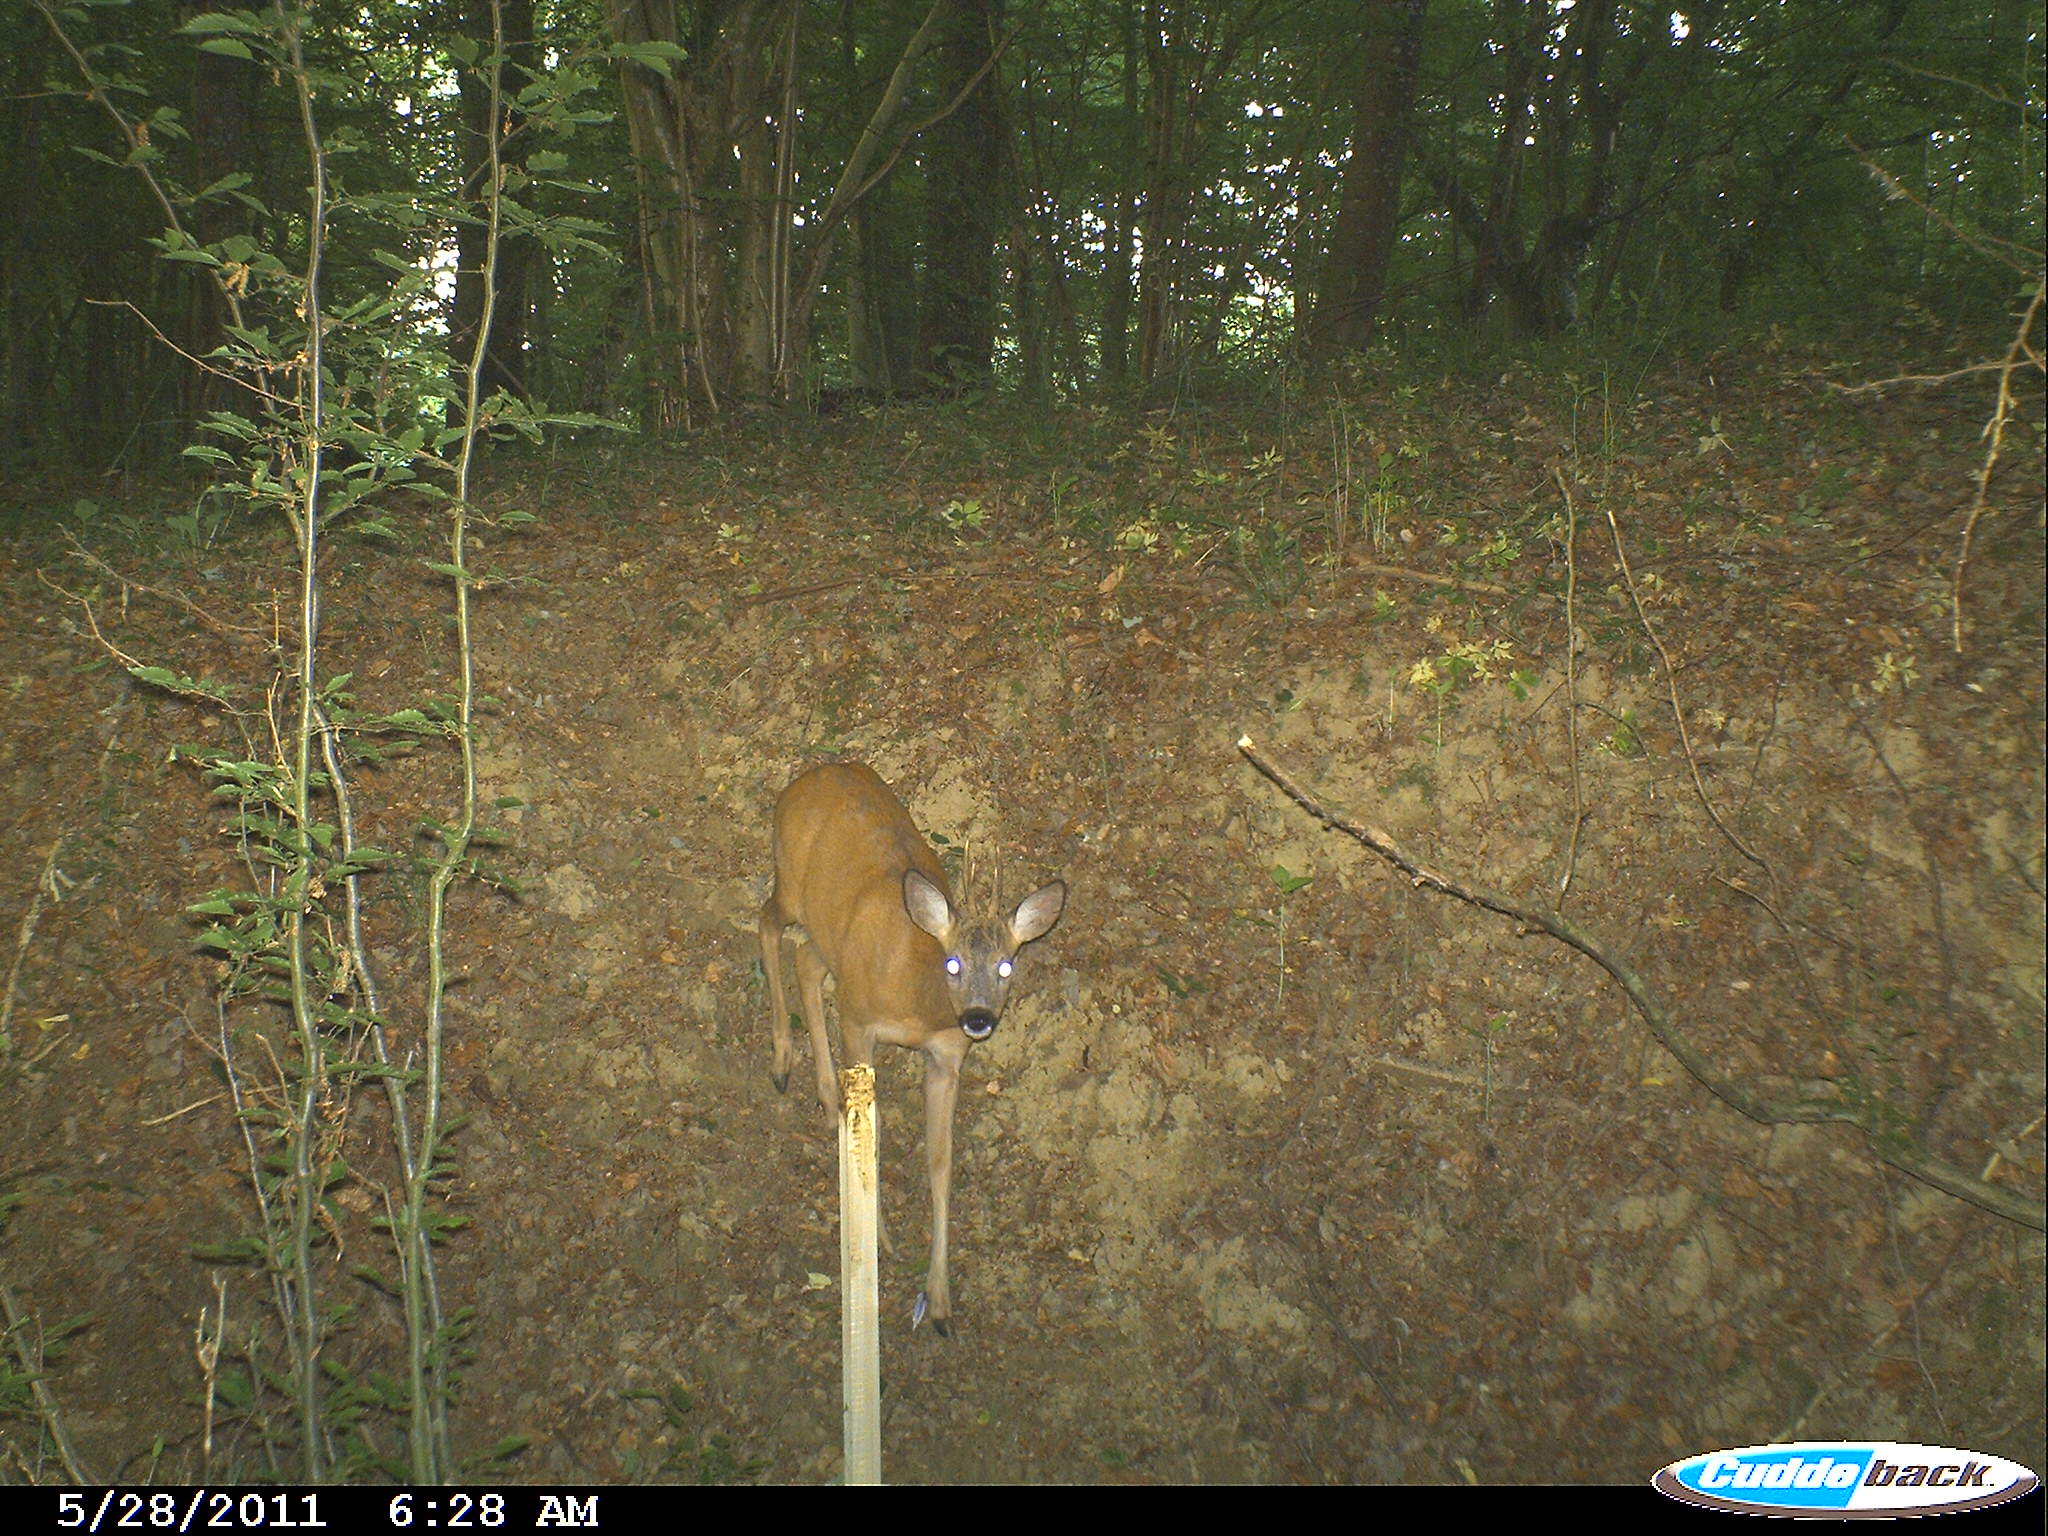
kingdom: Animalia
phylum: Chordata
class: Mammalia
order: Artiodactyla
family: Cervidae
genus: Capreolus
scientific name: Capreolus capreolus
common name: Western roe deer
